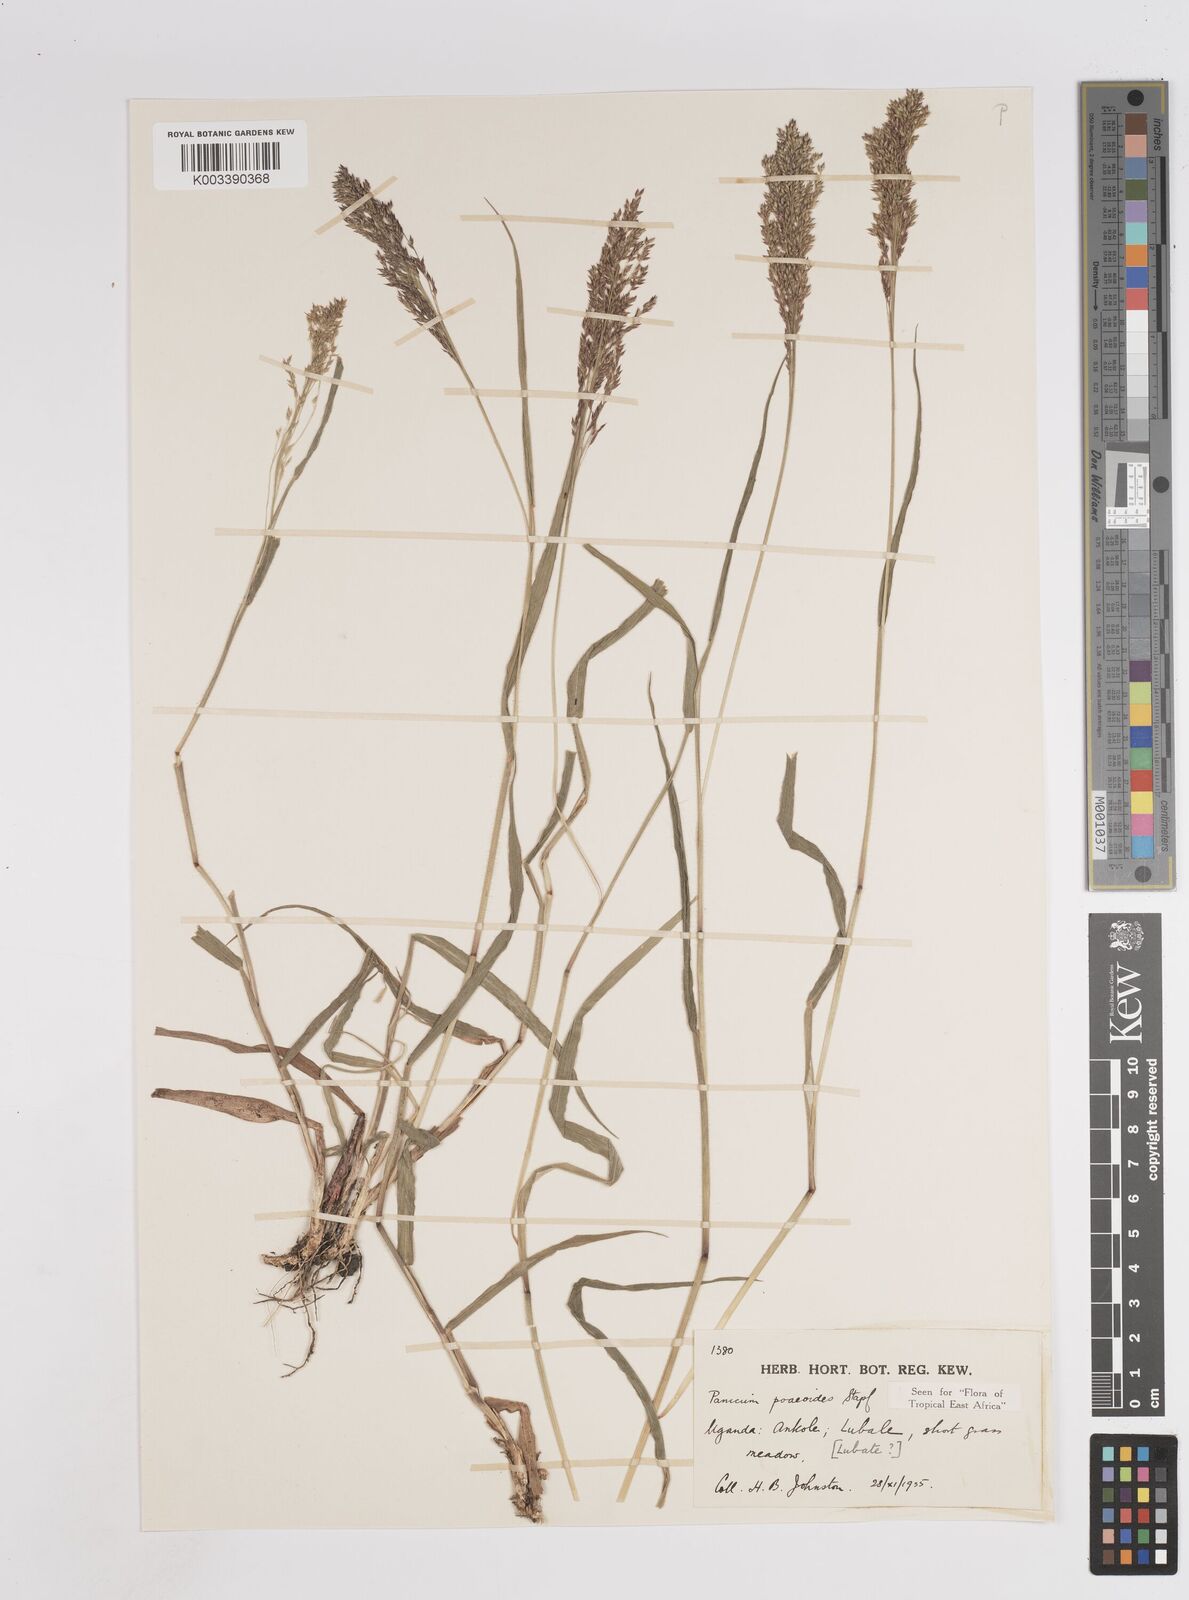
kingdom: Plantae
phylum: Tracheophyta
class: Liliopsida
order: Poales
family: Poaceae
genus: Panicum
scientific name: Panicum
